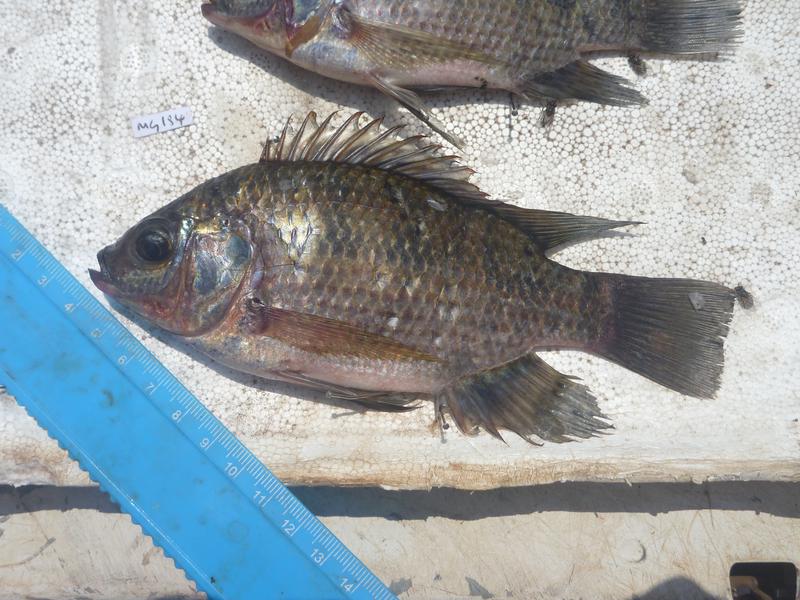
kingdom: Animalia
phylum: Chordata
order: Perciformes
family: Cichlidae
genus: Oreochromis
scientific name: Oreochromis upembae
